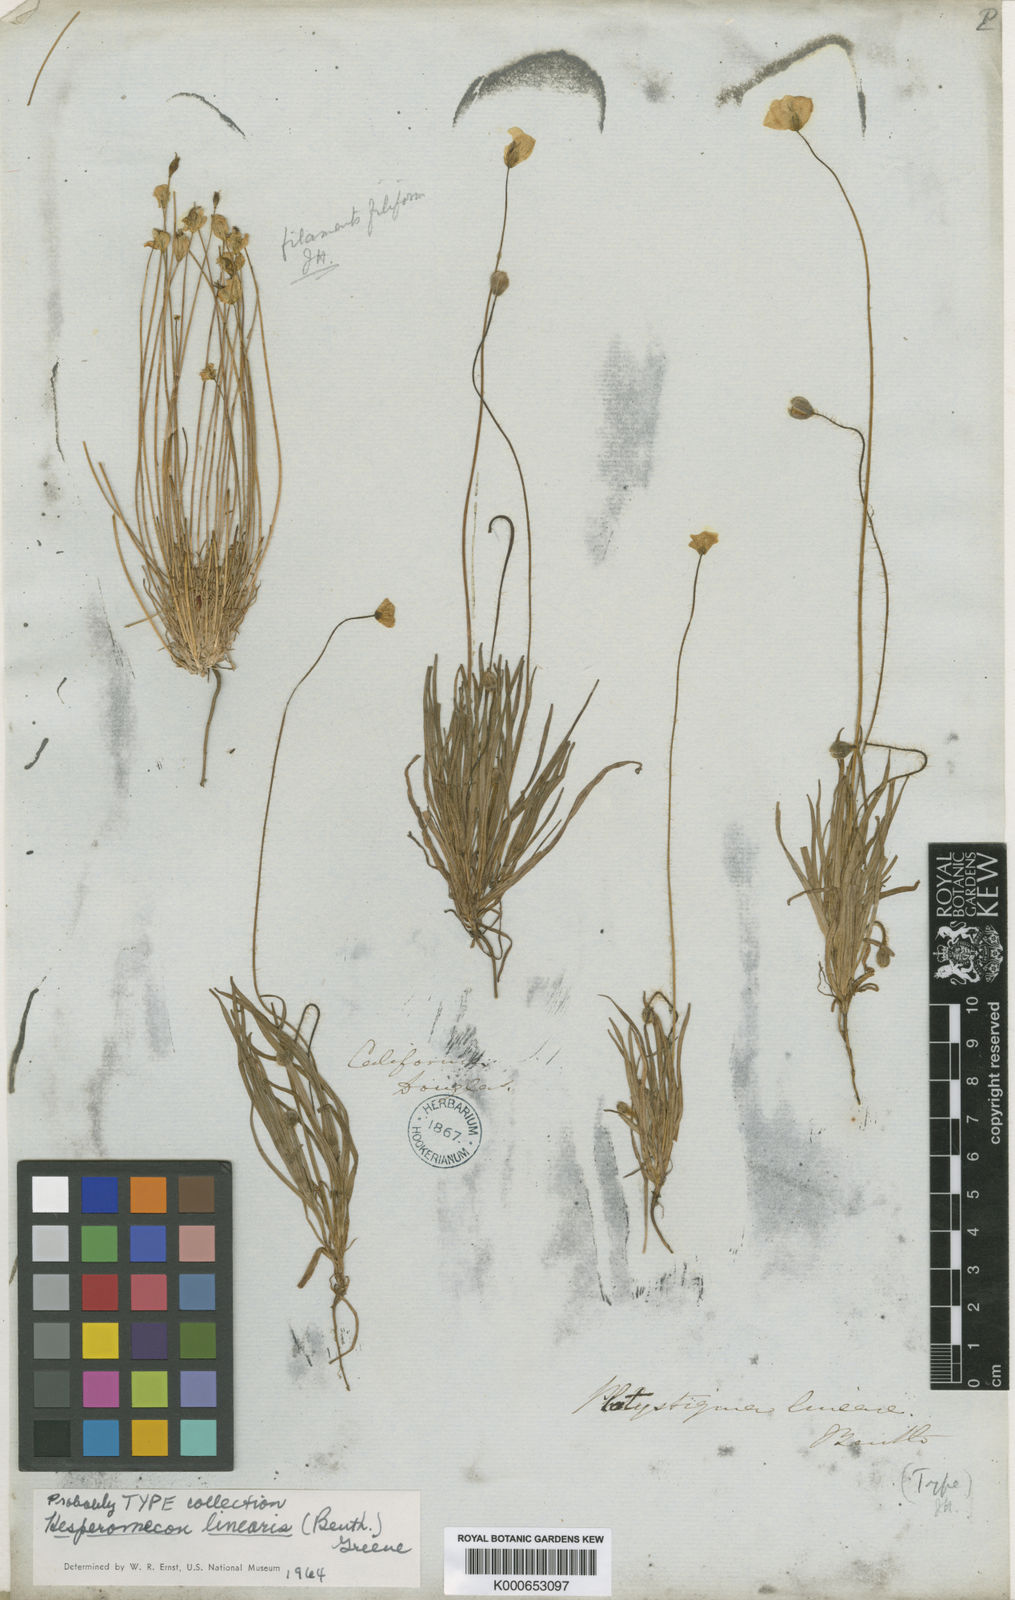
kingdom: Plantae
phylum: Tracheophyta
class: Magnoliopsida
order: Ranunculales
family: Papaveraceae
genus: Platystigma
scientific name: Platystigma lineare
